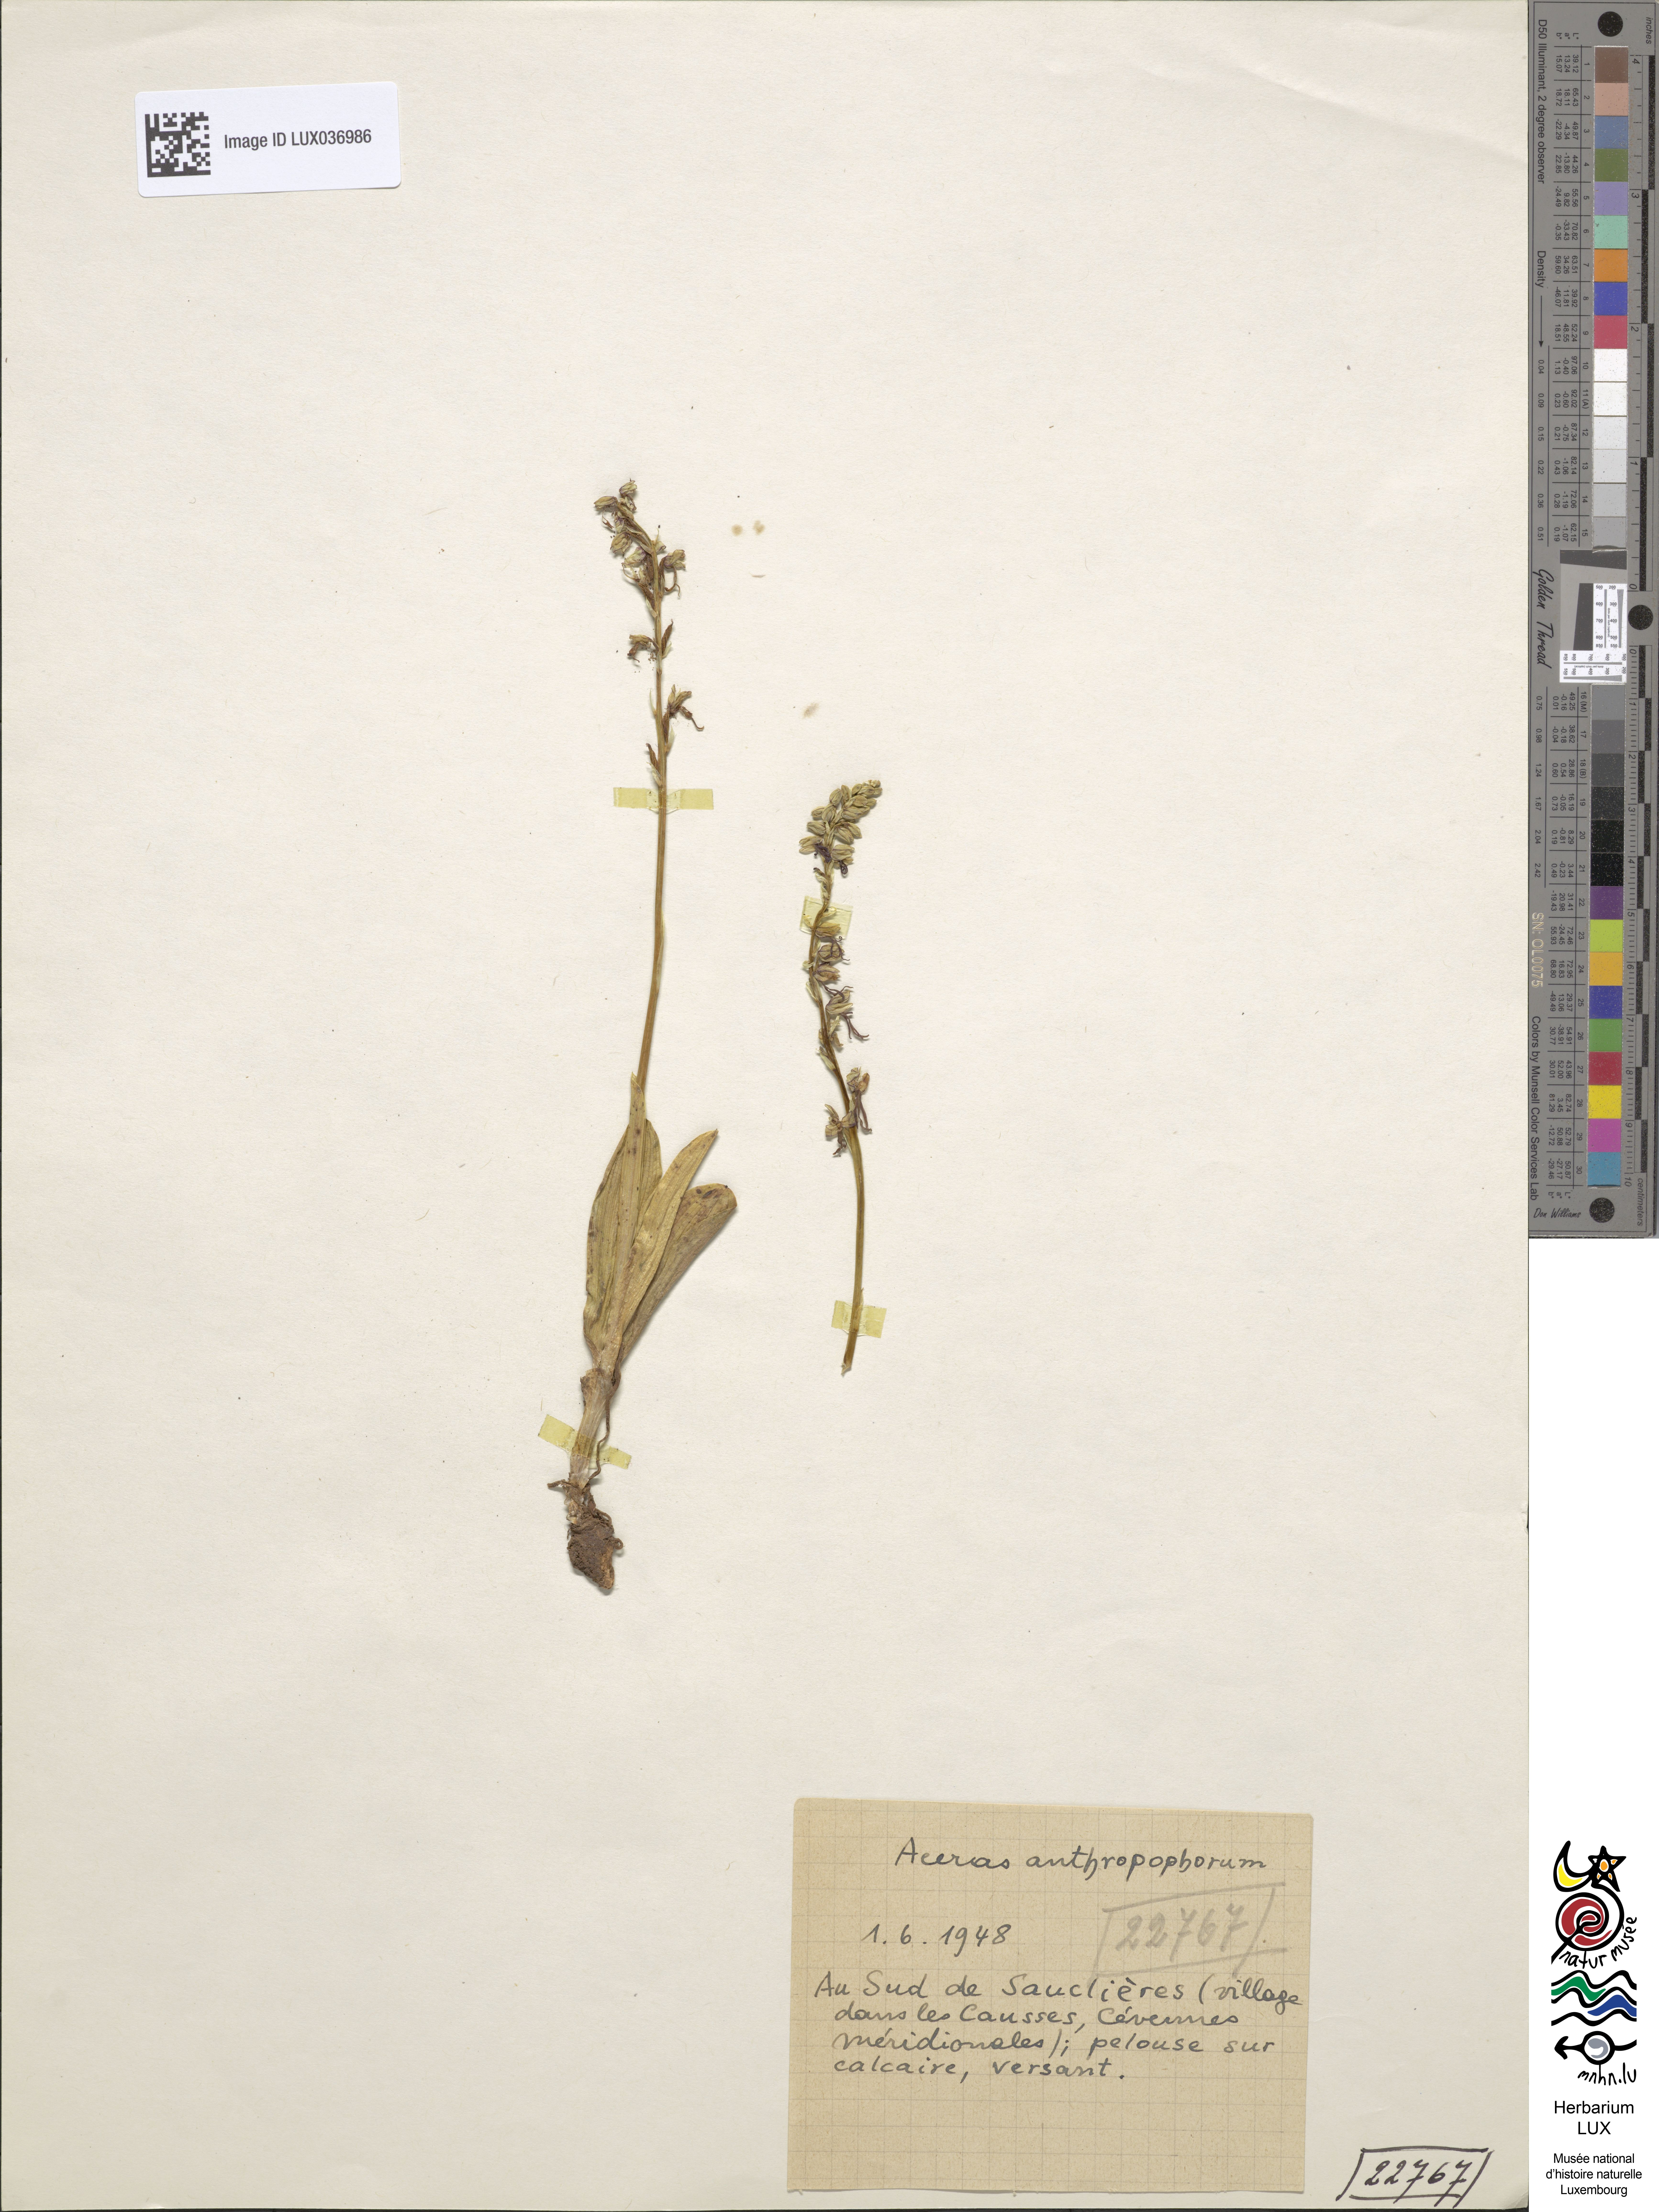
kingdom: Plantae
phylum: Tracheophyta
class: Liliopsida
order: Asparagales
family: Orchidaceae
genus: Orchis
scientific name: Orchis anthropophora
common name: Man orchid
